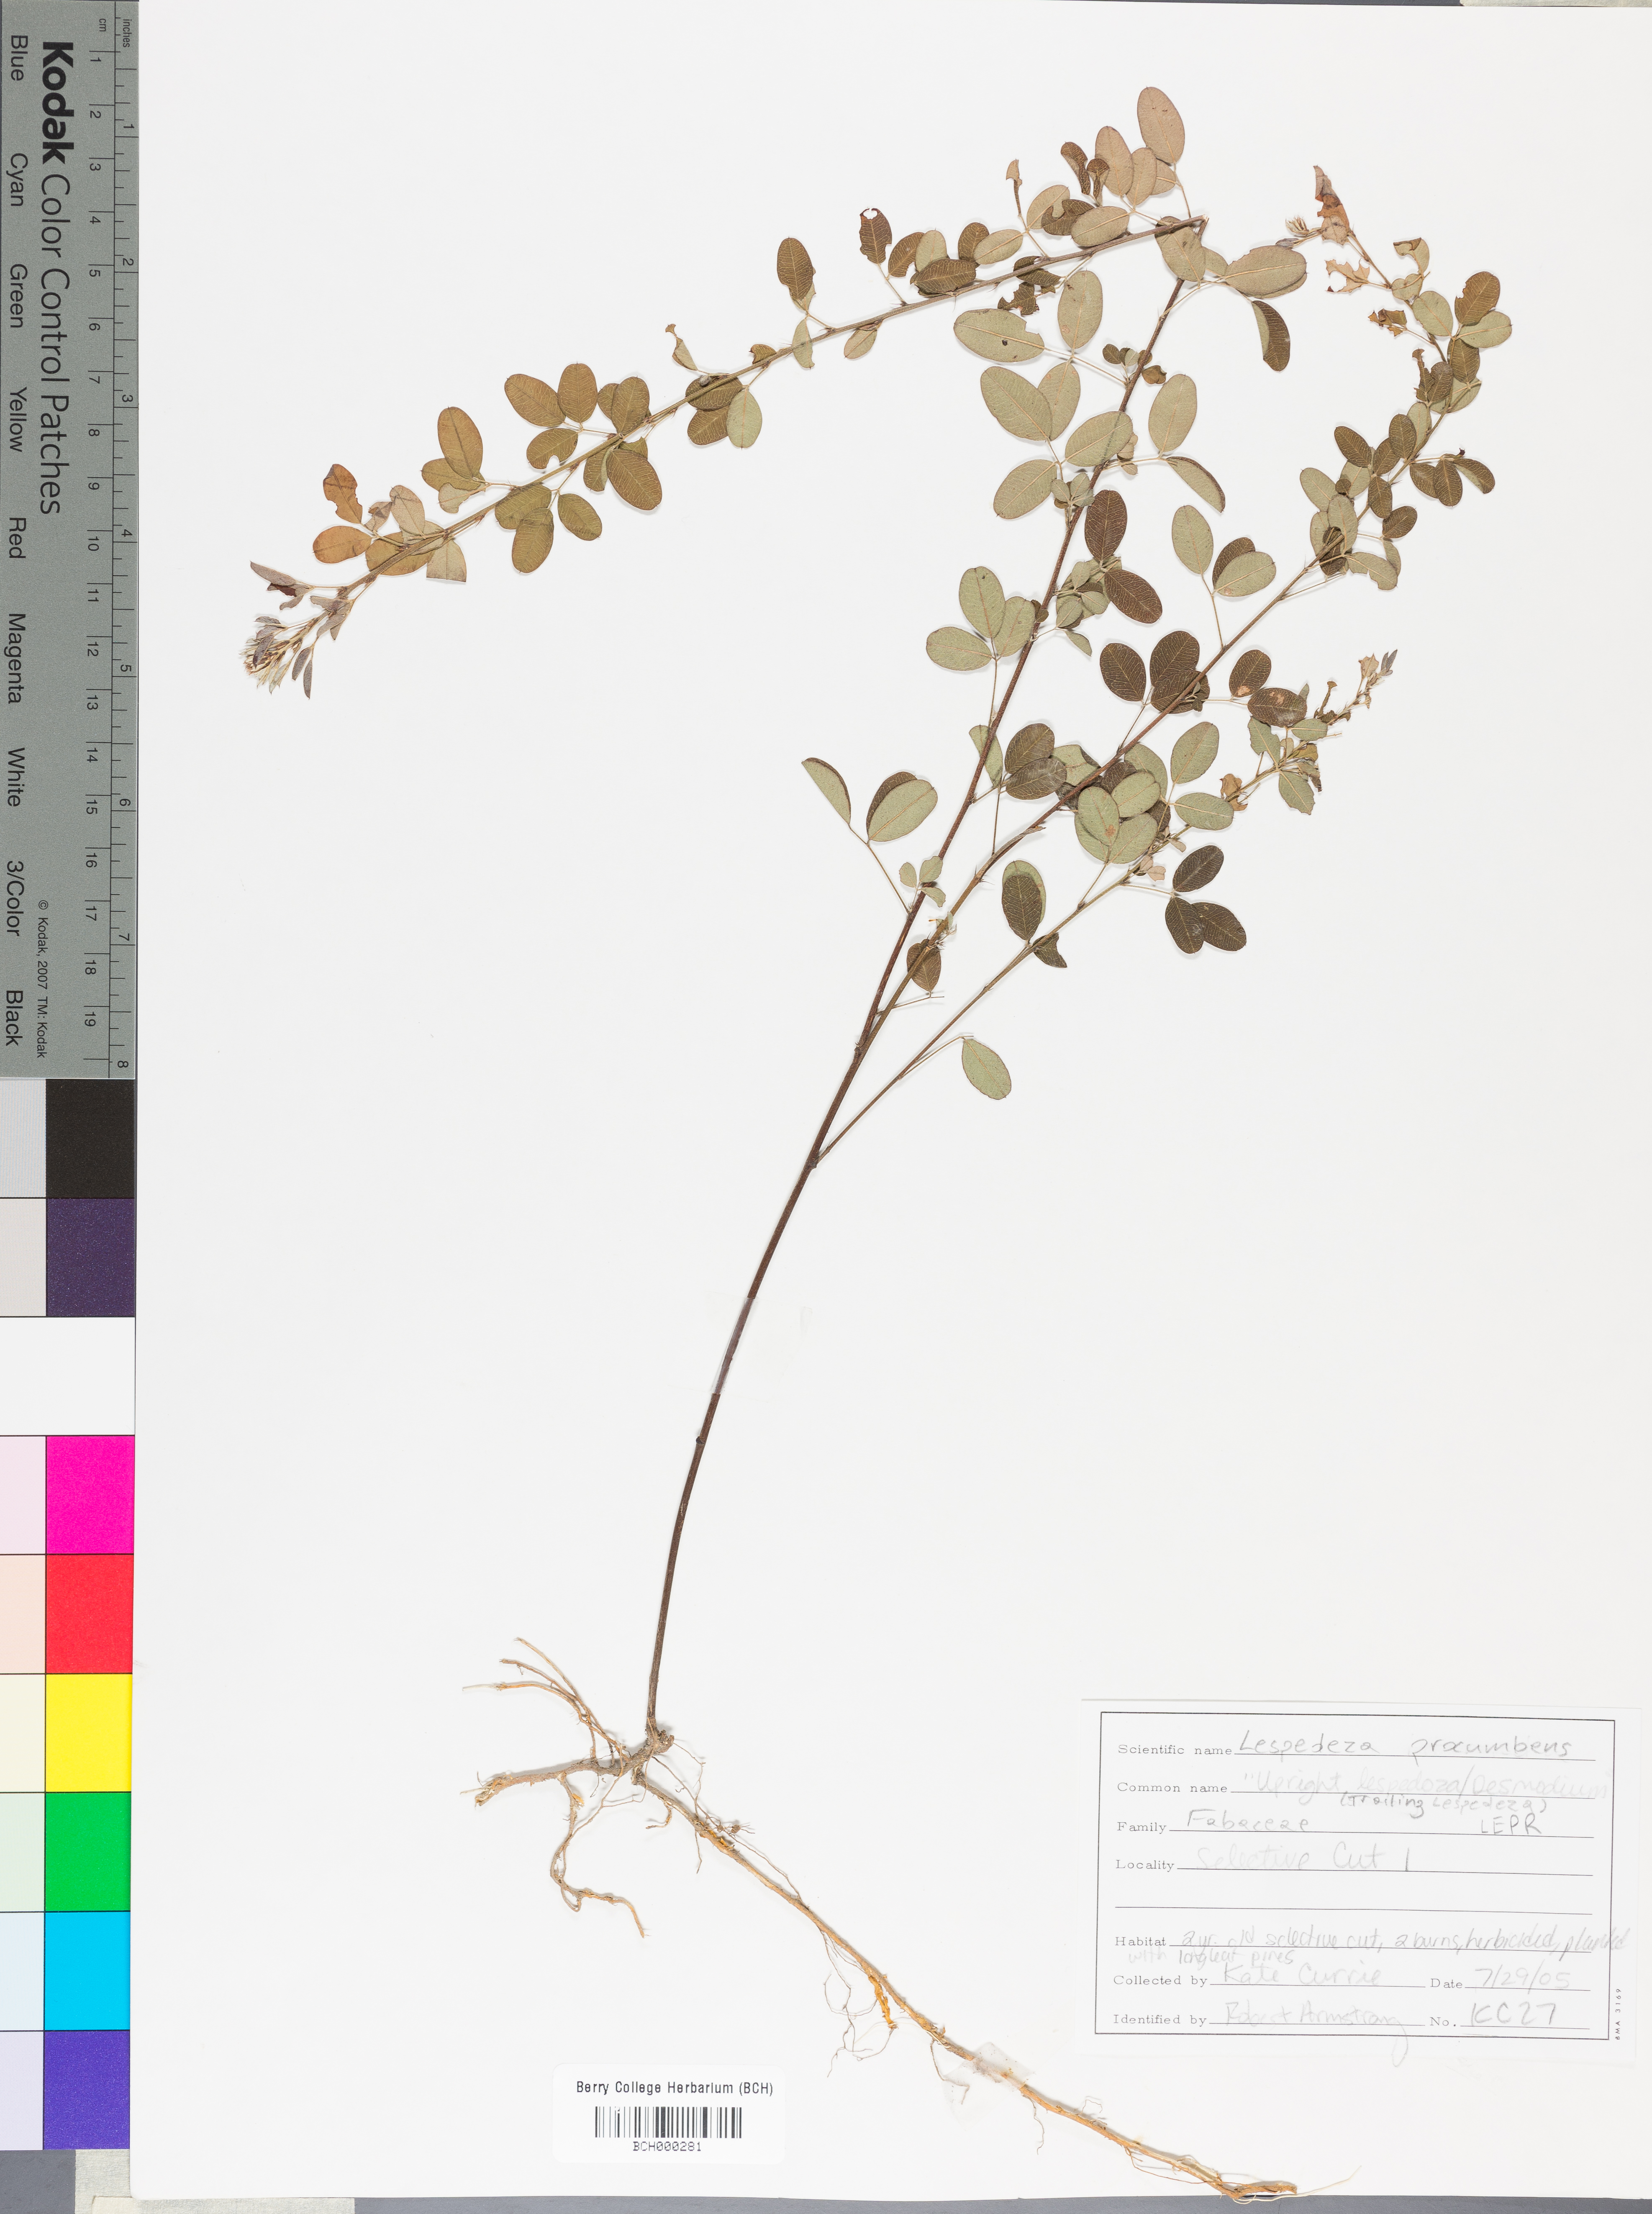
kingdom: Plantae
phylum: Tracheophyta
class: Magnoliopsida
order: Fabales
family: Fabaceae
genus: Lespedeza
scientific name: Lespedeza procumbens
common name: Downy trailing bush-clover
